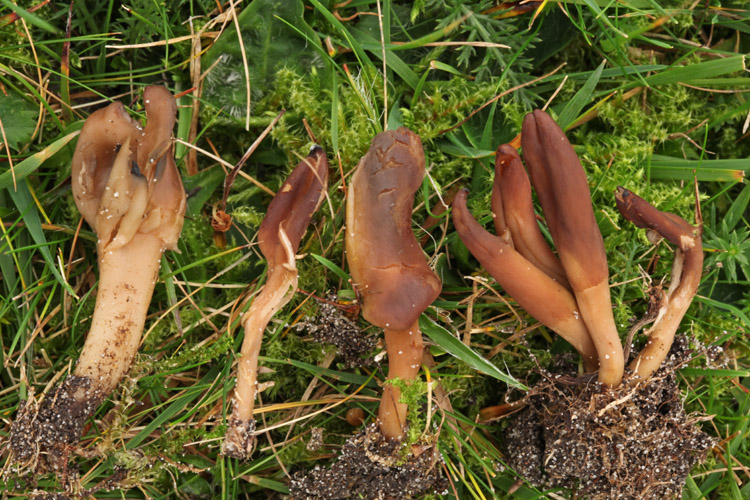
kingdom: Fungi
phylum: Ascomycota
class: Leotiomycetes
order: Leotiales
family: Leotiaceae
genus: Microglossum
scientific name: Microglossum olivaceum
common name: olivenbrun farvetunge
